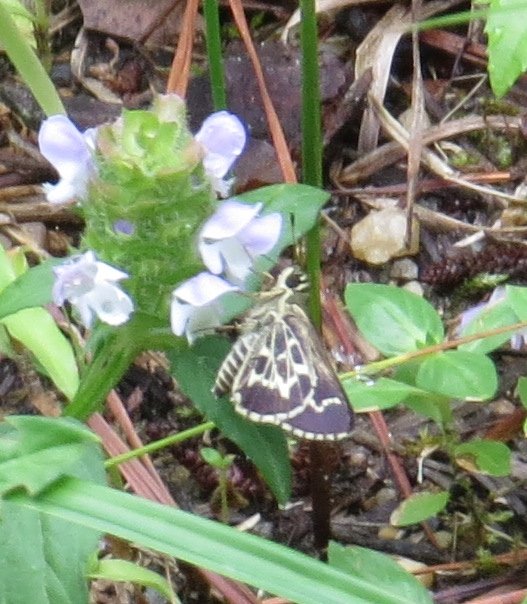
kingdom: Animalia
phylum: Arthropoda
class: Insecta
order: Lepidoptera
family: Hesperiidae
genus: Mastor
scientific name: Mastor aesculapius
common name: Lace-winged Roadside-Skipper
